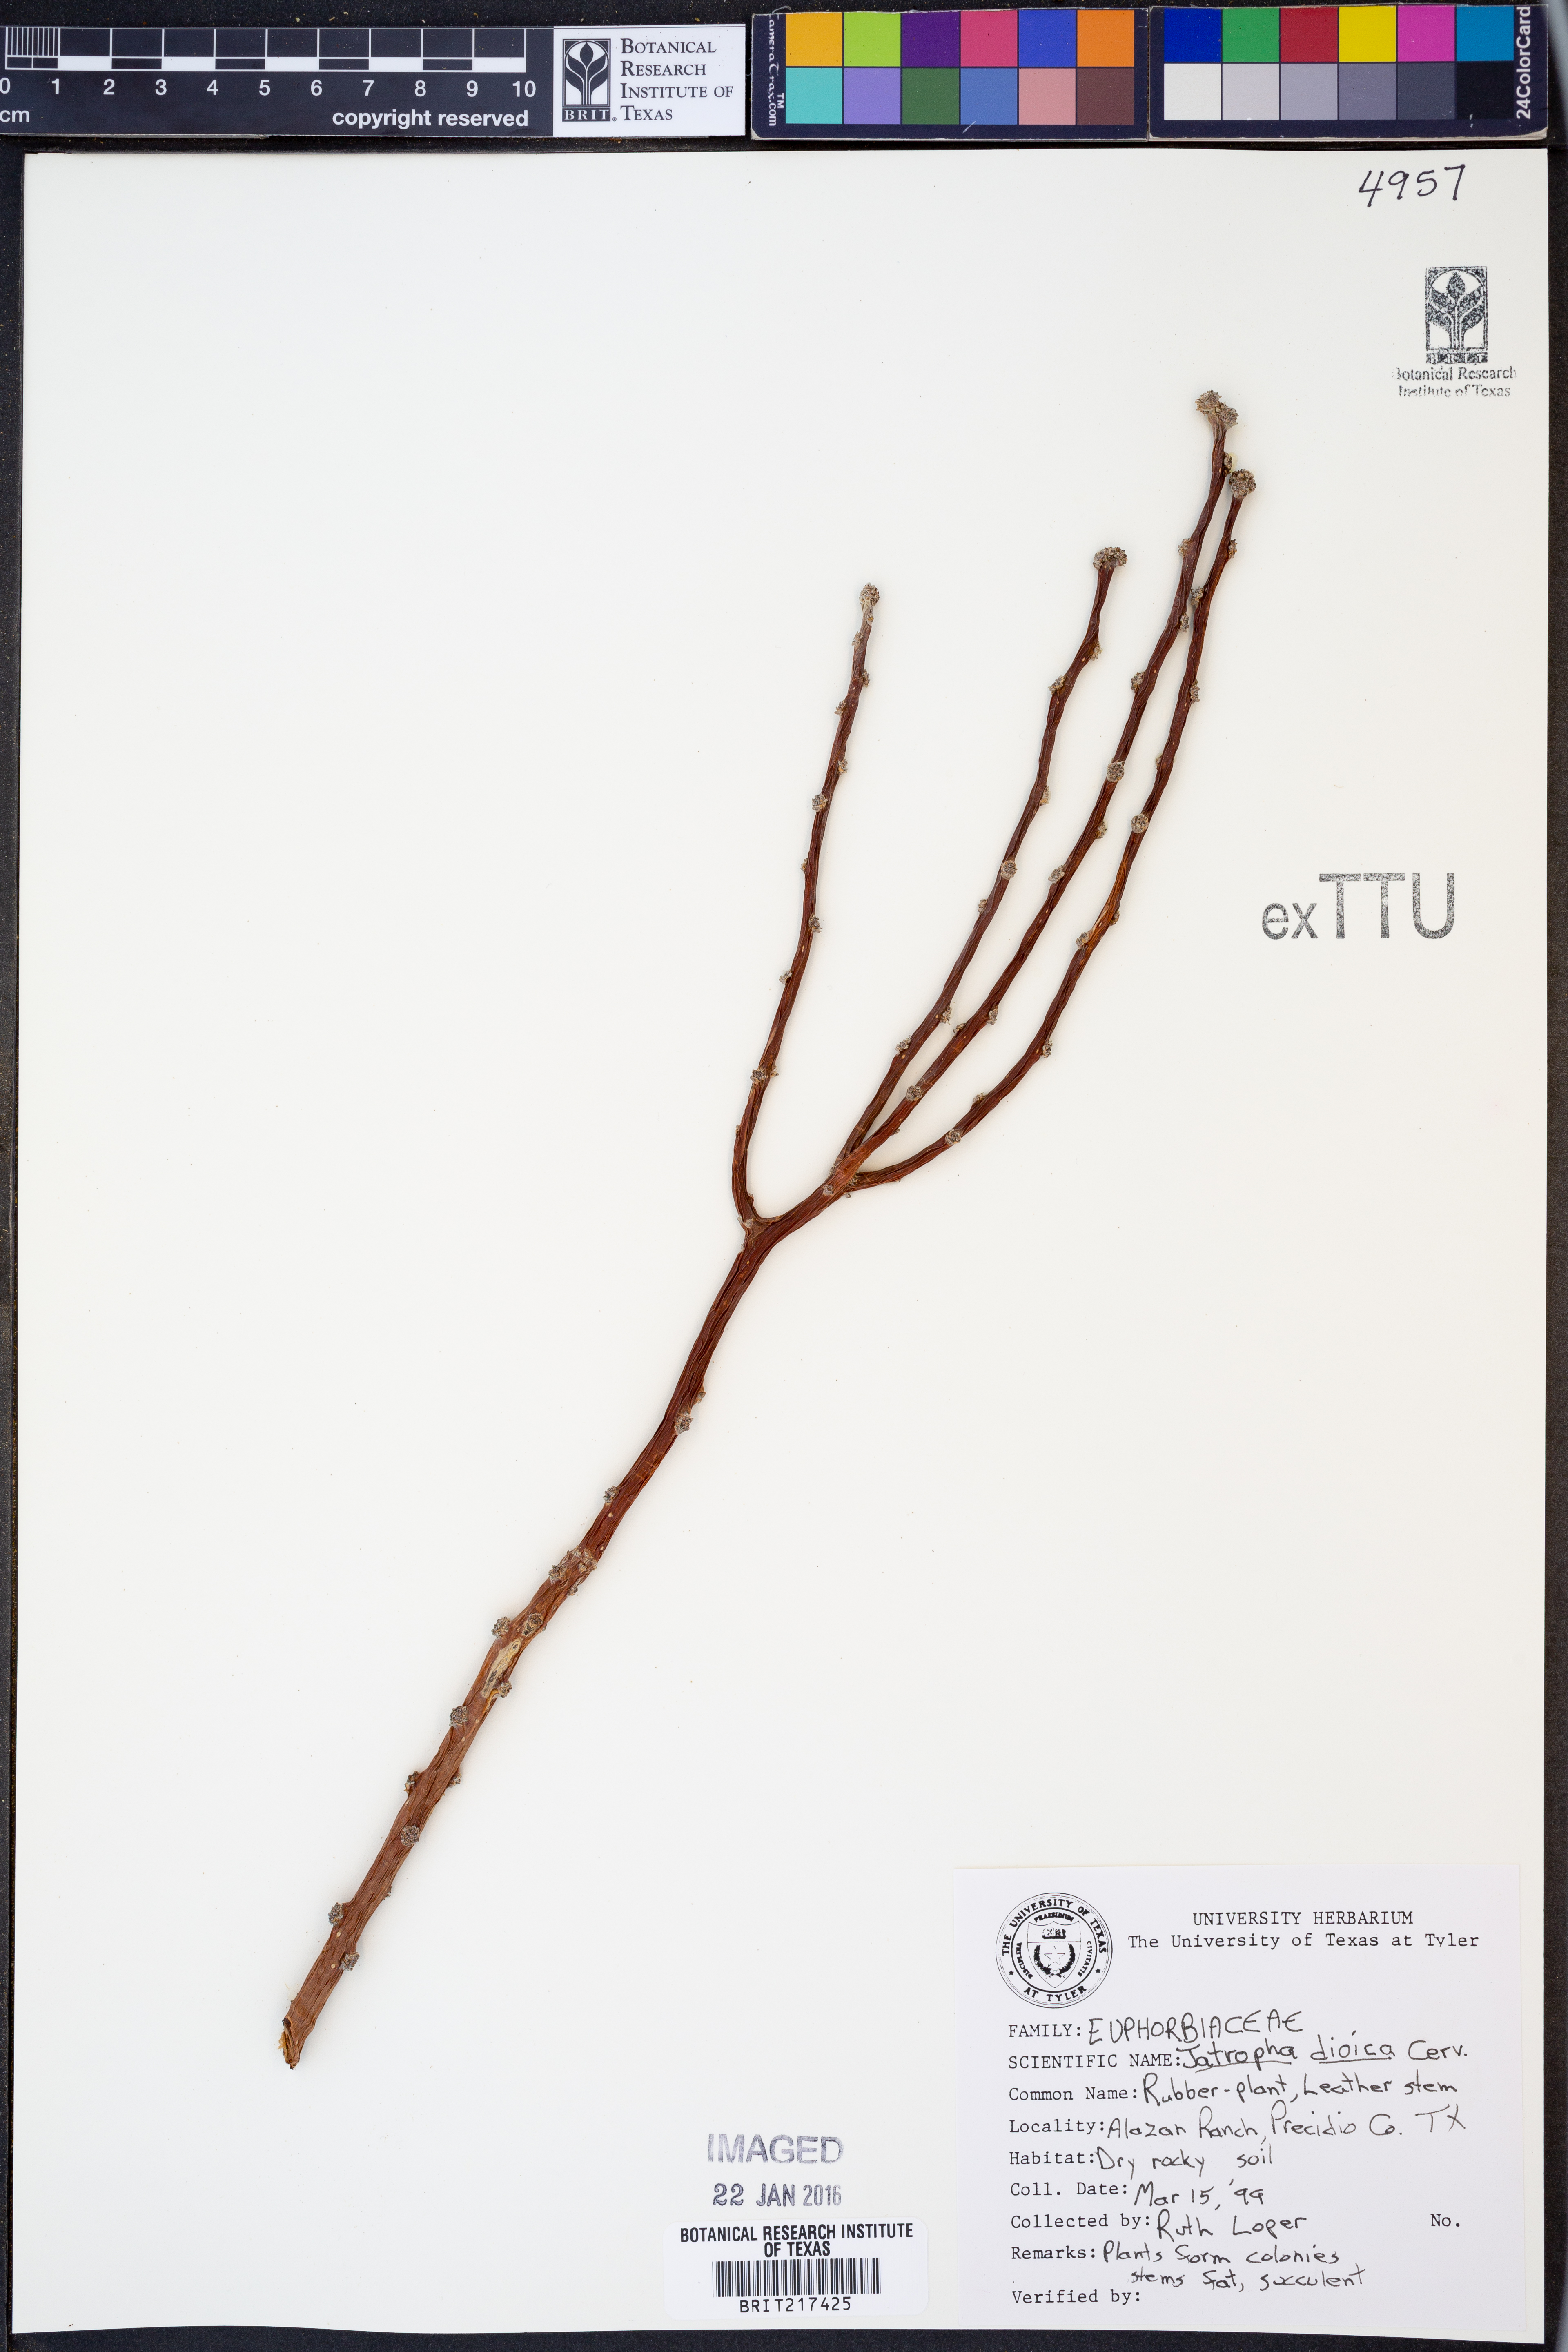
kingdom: Plantae
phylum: Tracheophyta
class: Magnoliopsida
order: Malpighiales
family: Euphorbiaceae
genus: Jatropha
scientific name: Jatropha dioica
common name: Leatherstem
